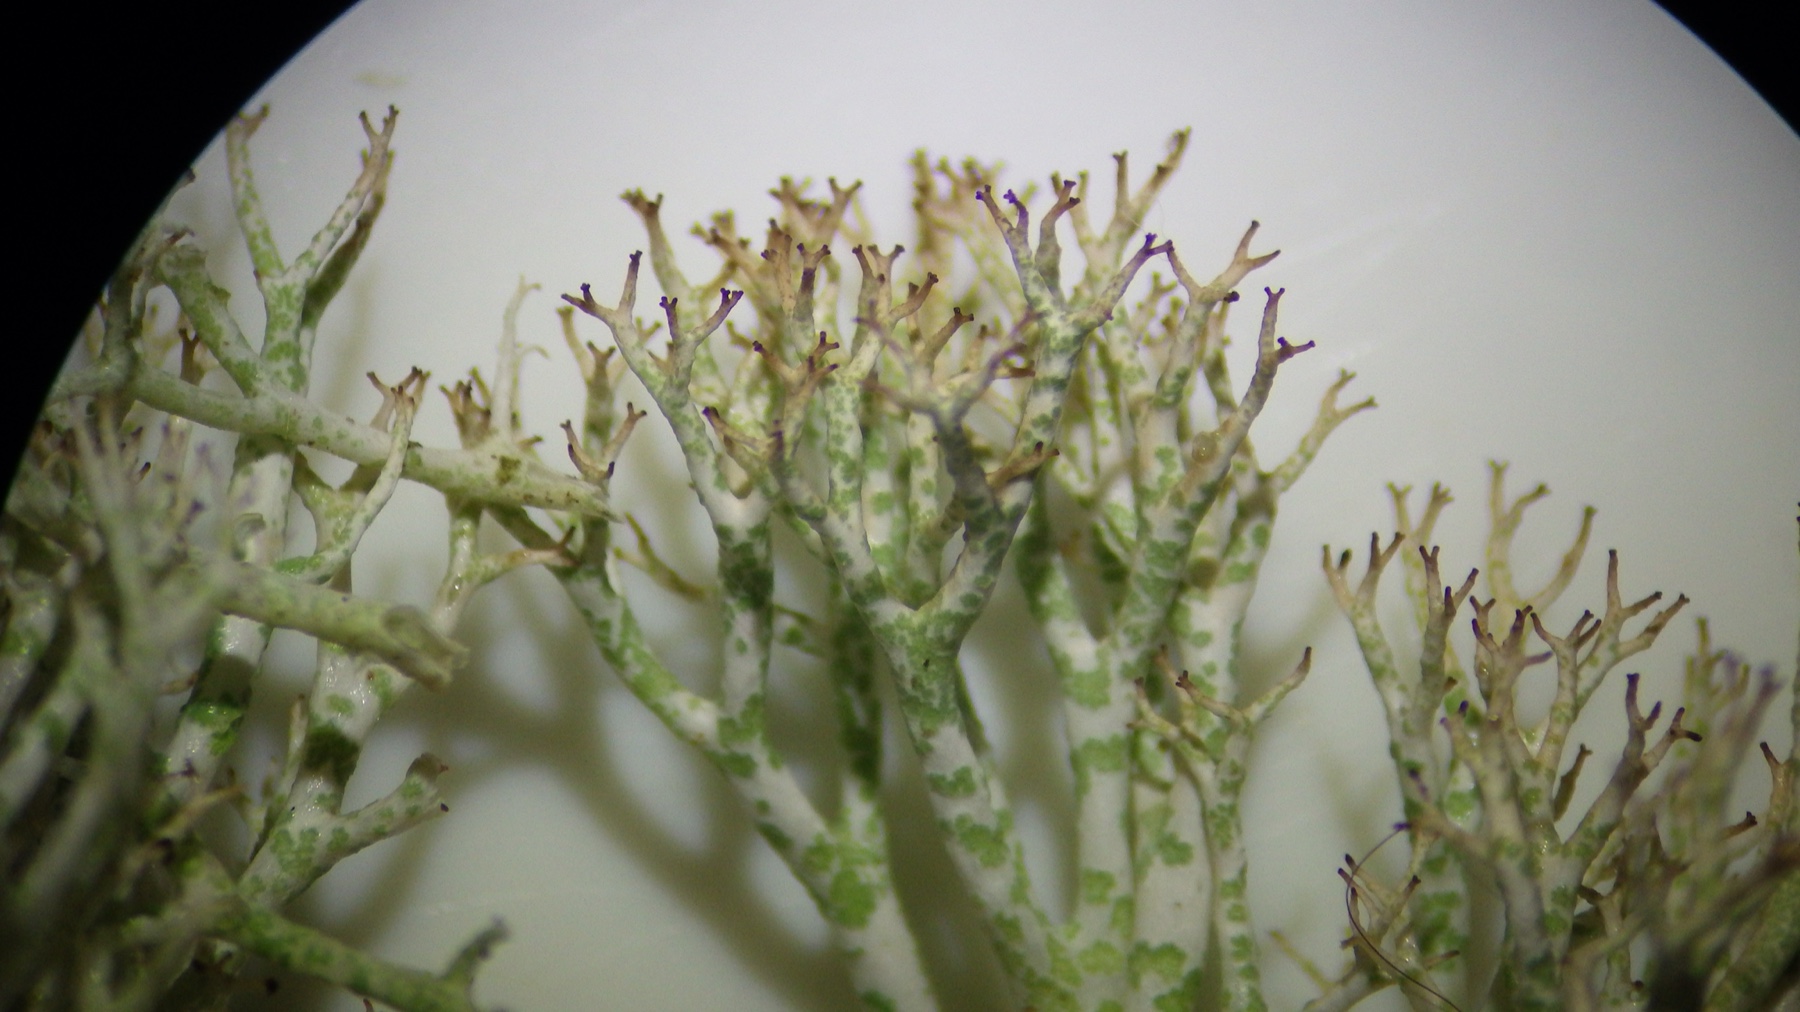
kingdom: Fungi
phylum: Ascomycota
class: Lecanoromycetes
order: Lecanorales
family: Cladoniaceae
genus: Cladonia
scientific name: Cladonia rangiformis
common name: spættet bægerlav
